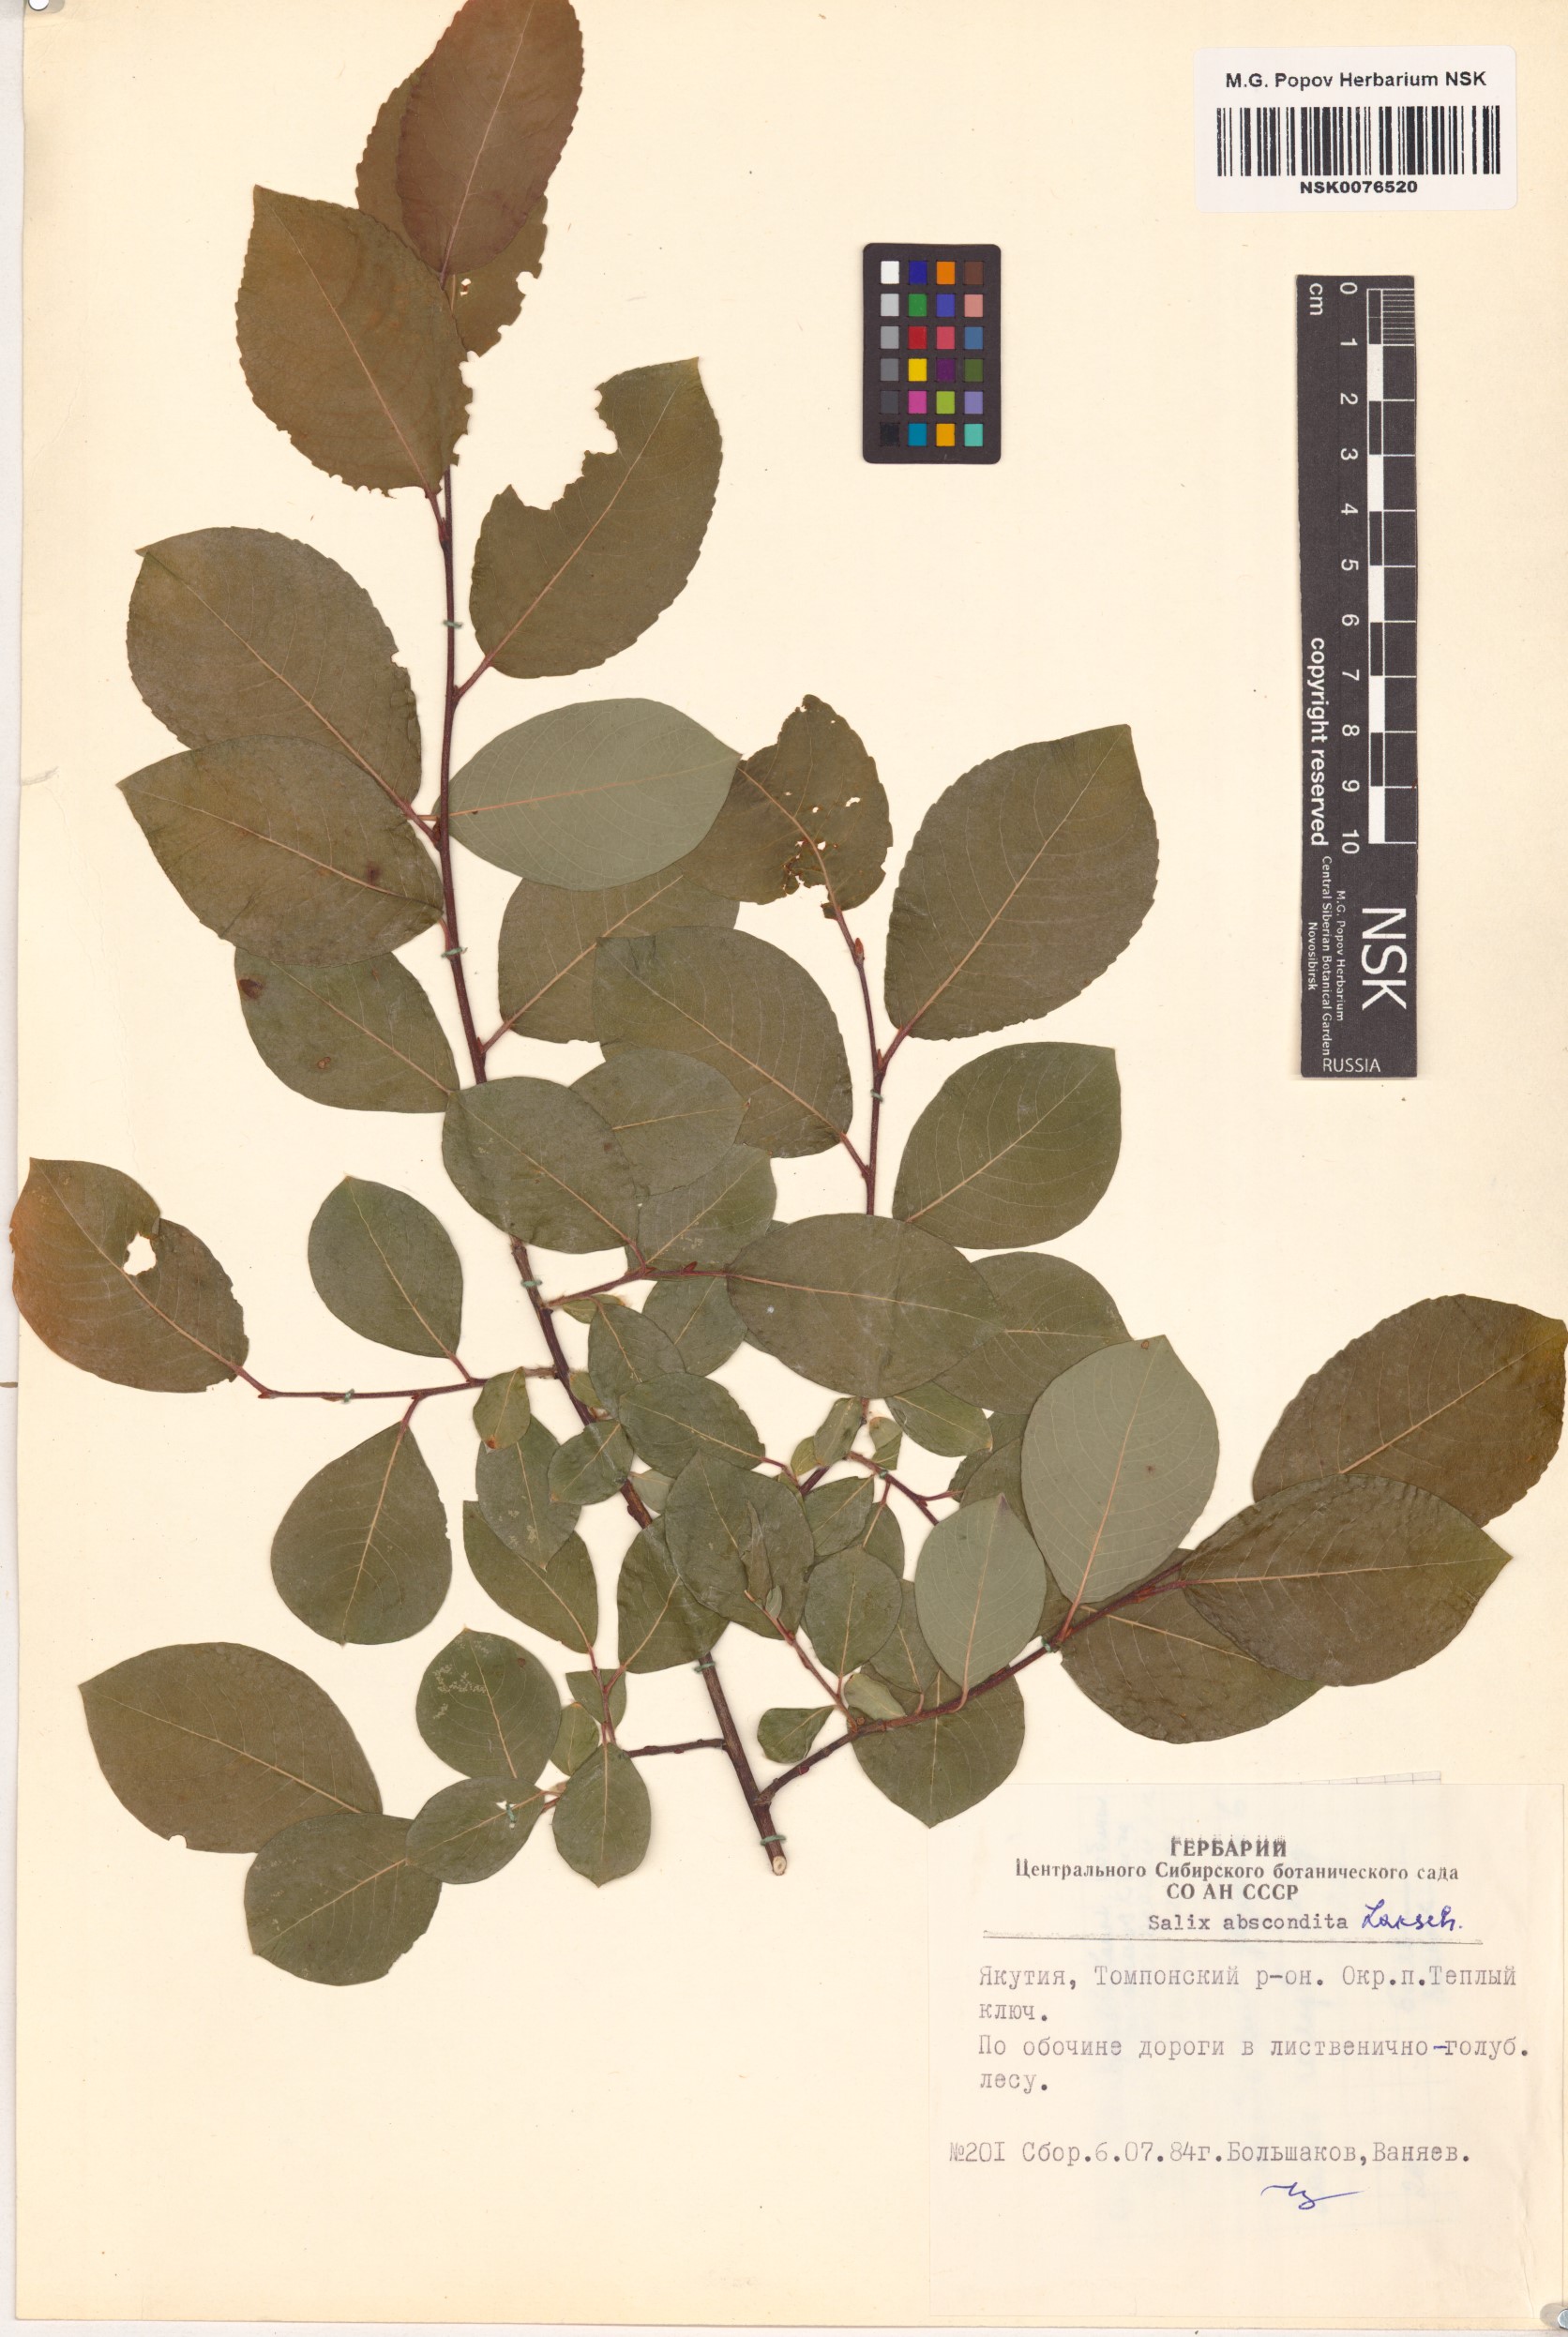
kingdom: Plantae
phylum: Tracheophyta
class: Magnoliopsida
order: Malpighiales
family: Salicaceae
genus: Salix
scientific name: Salix abscondita
